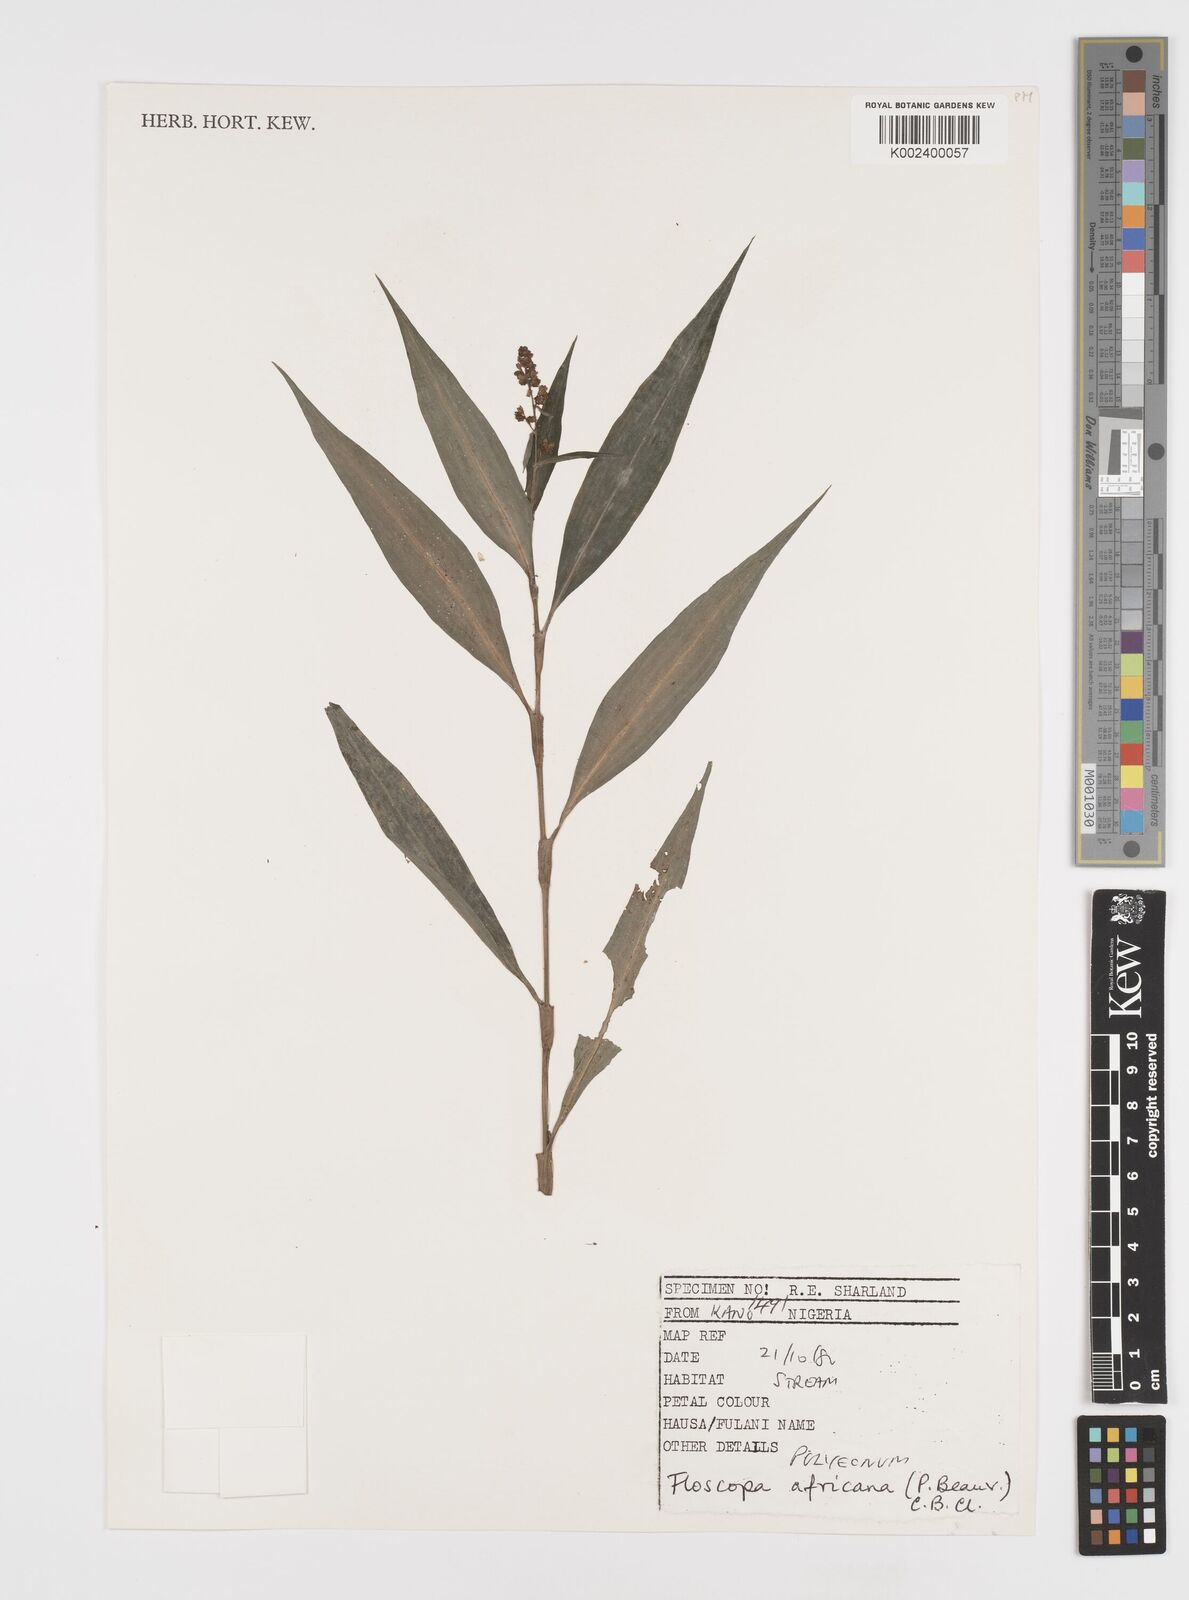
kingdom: Plantae
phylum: Tracheophyta
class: Liliopsida
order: Commelinales
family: Commelinaceae
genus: Floscopa
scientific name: Floscopa africana
